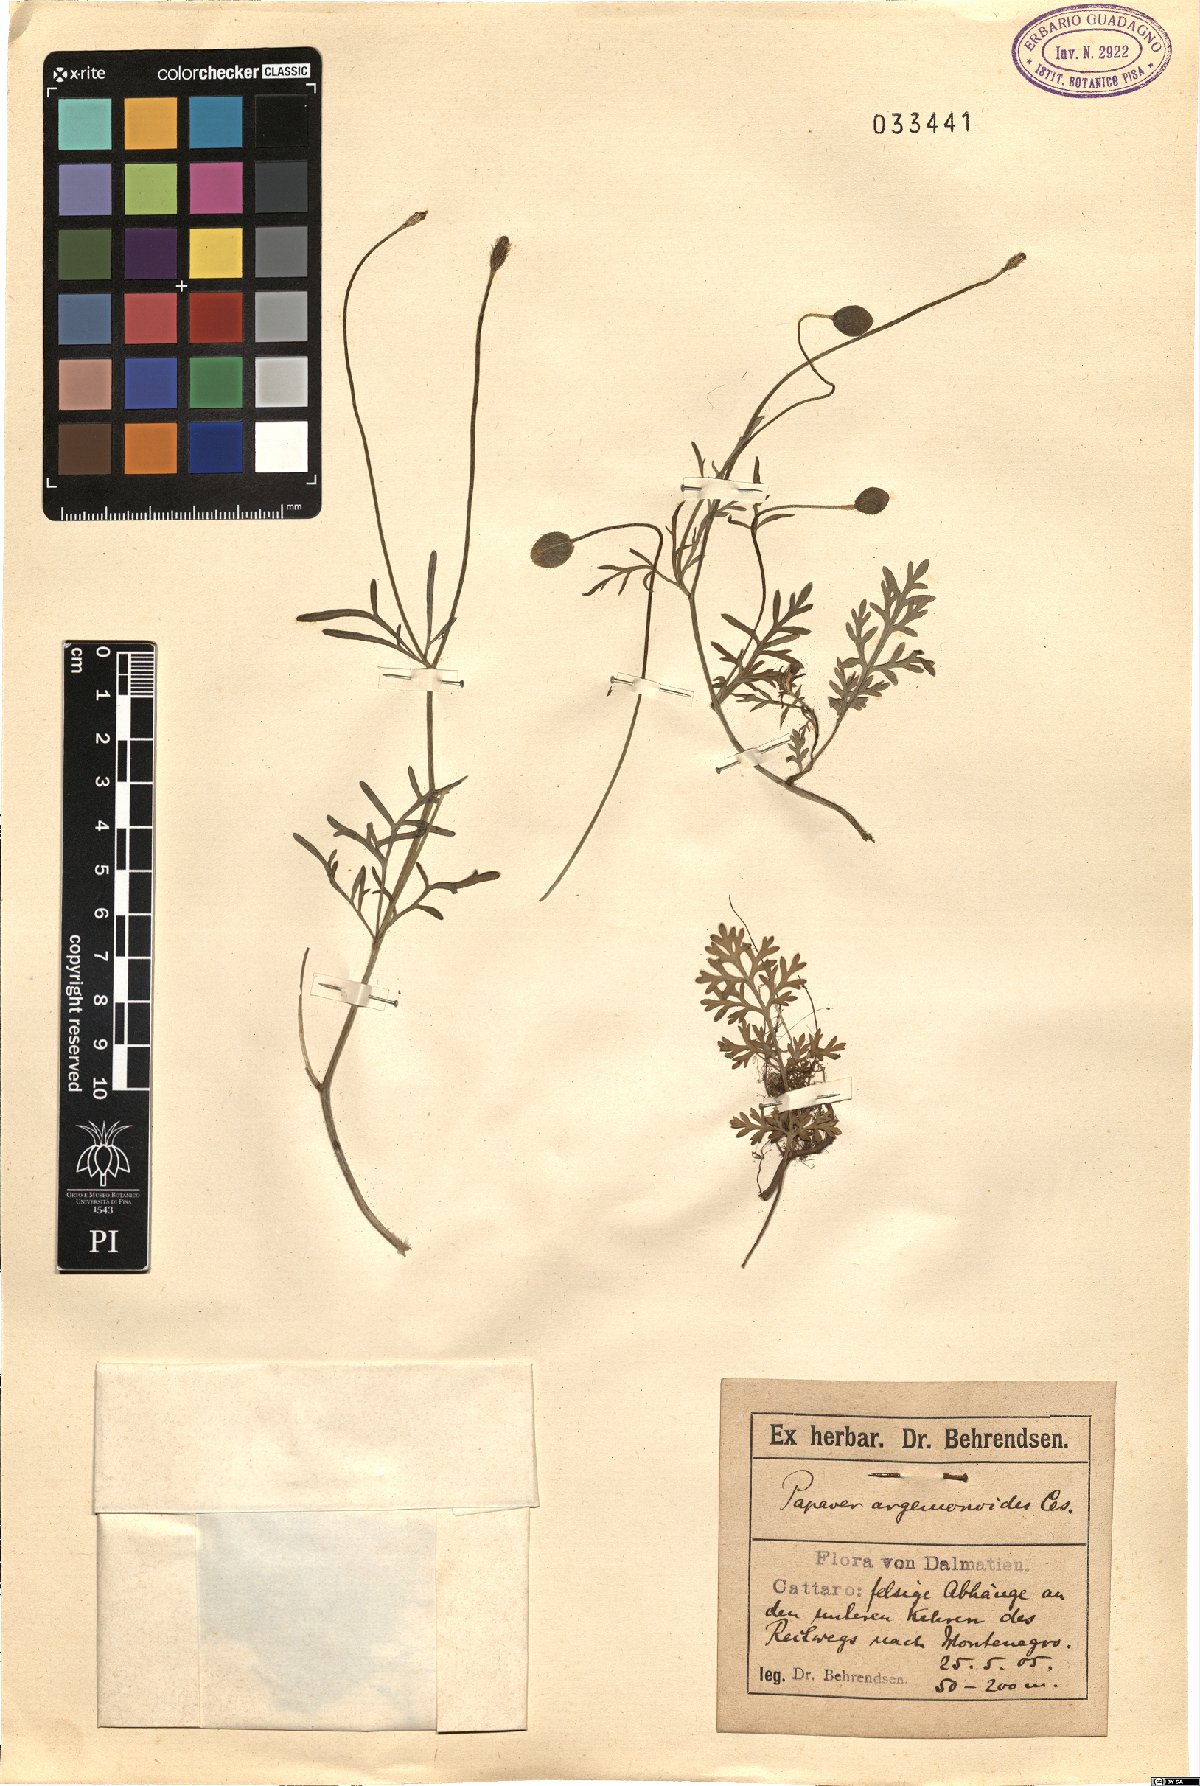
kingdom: Plantae
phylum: Tracheophyta
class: Magnoliopsida
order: Ranunculales
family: Papaveraceae
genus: Roemeria
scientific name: Roemeria apula
